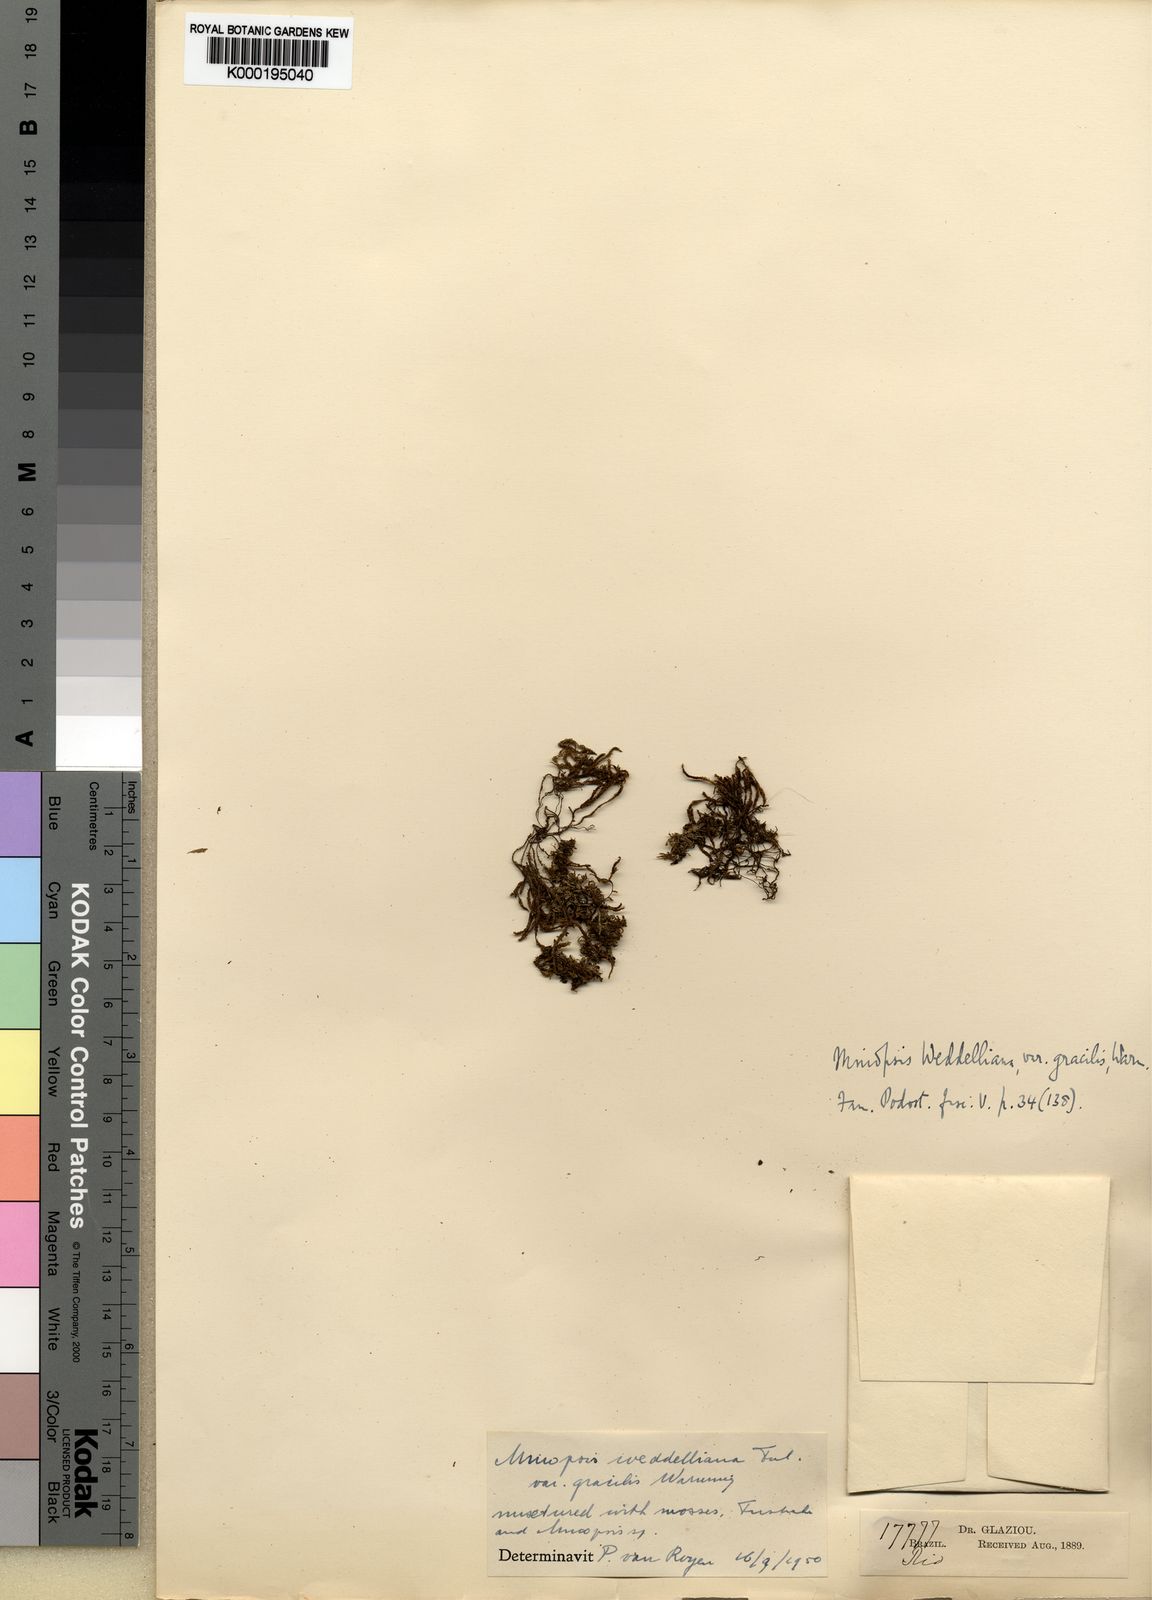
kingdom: Plantae
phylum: Tracheophyta
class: Magnoliopsida
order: Malpighiales
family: Podostemaceae
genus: Podostemum
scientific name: Podostemum weddellianum
